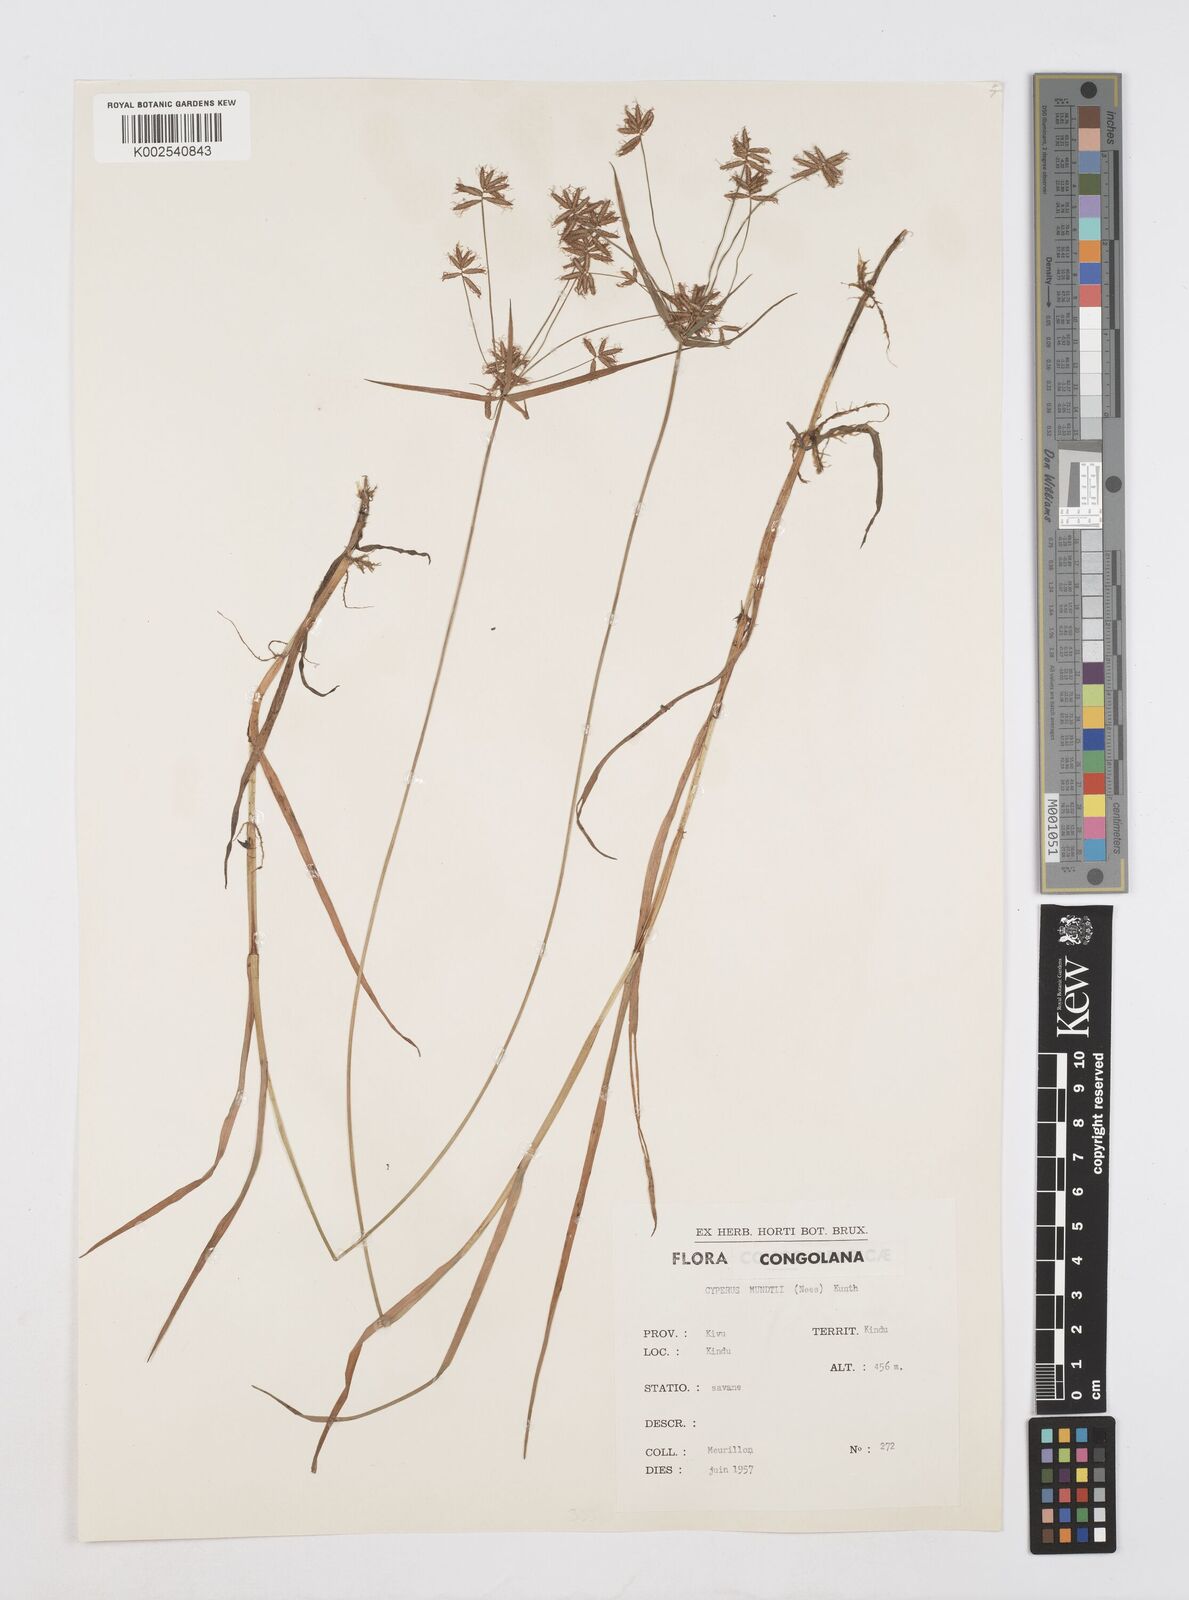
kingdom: Plantae
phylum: Tracheophyta
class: Liliopsida
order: Poales
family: Cyperaceae
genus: Cyperus
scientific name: Cyperus mundii
